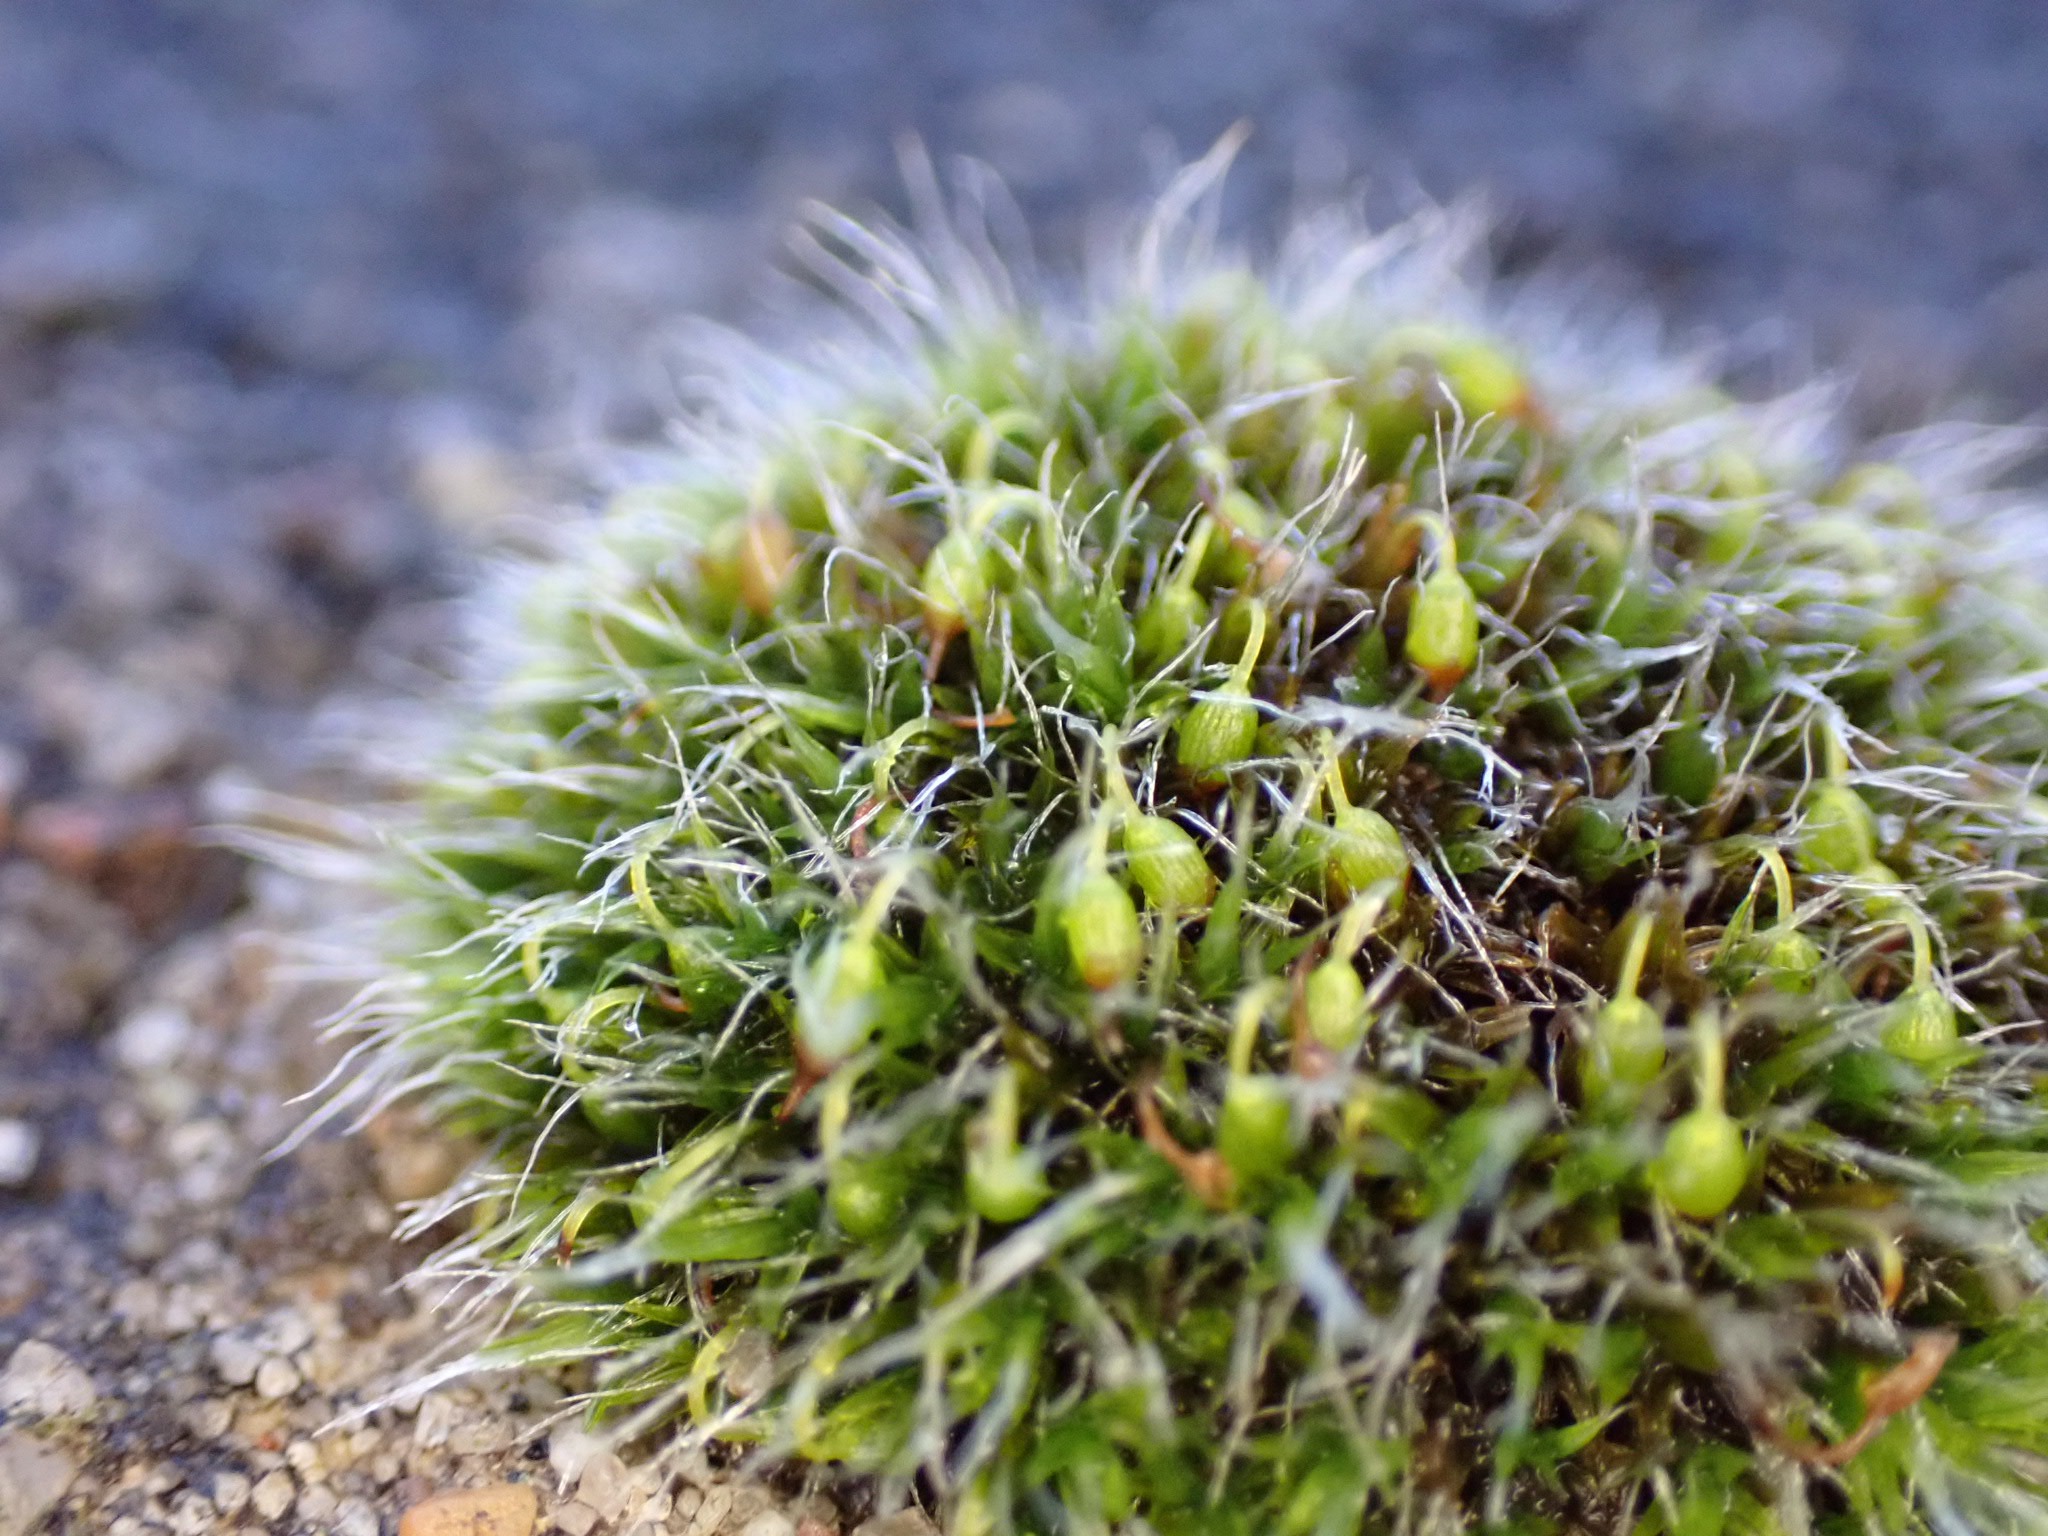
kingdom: Plantae
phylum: Bryophyta
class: Bryopsida
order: Grimmiales
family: Grimmiaceae
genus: Grimmia
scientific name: Grimmia pulvinata
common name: Pude-gråmos
